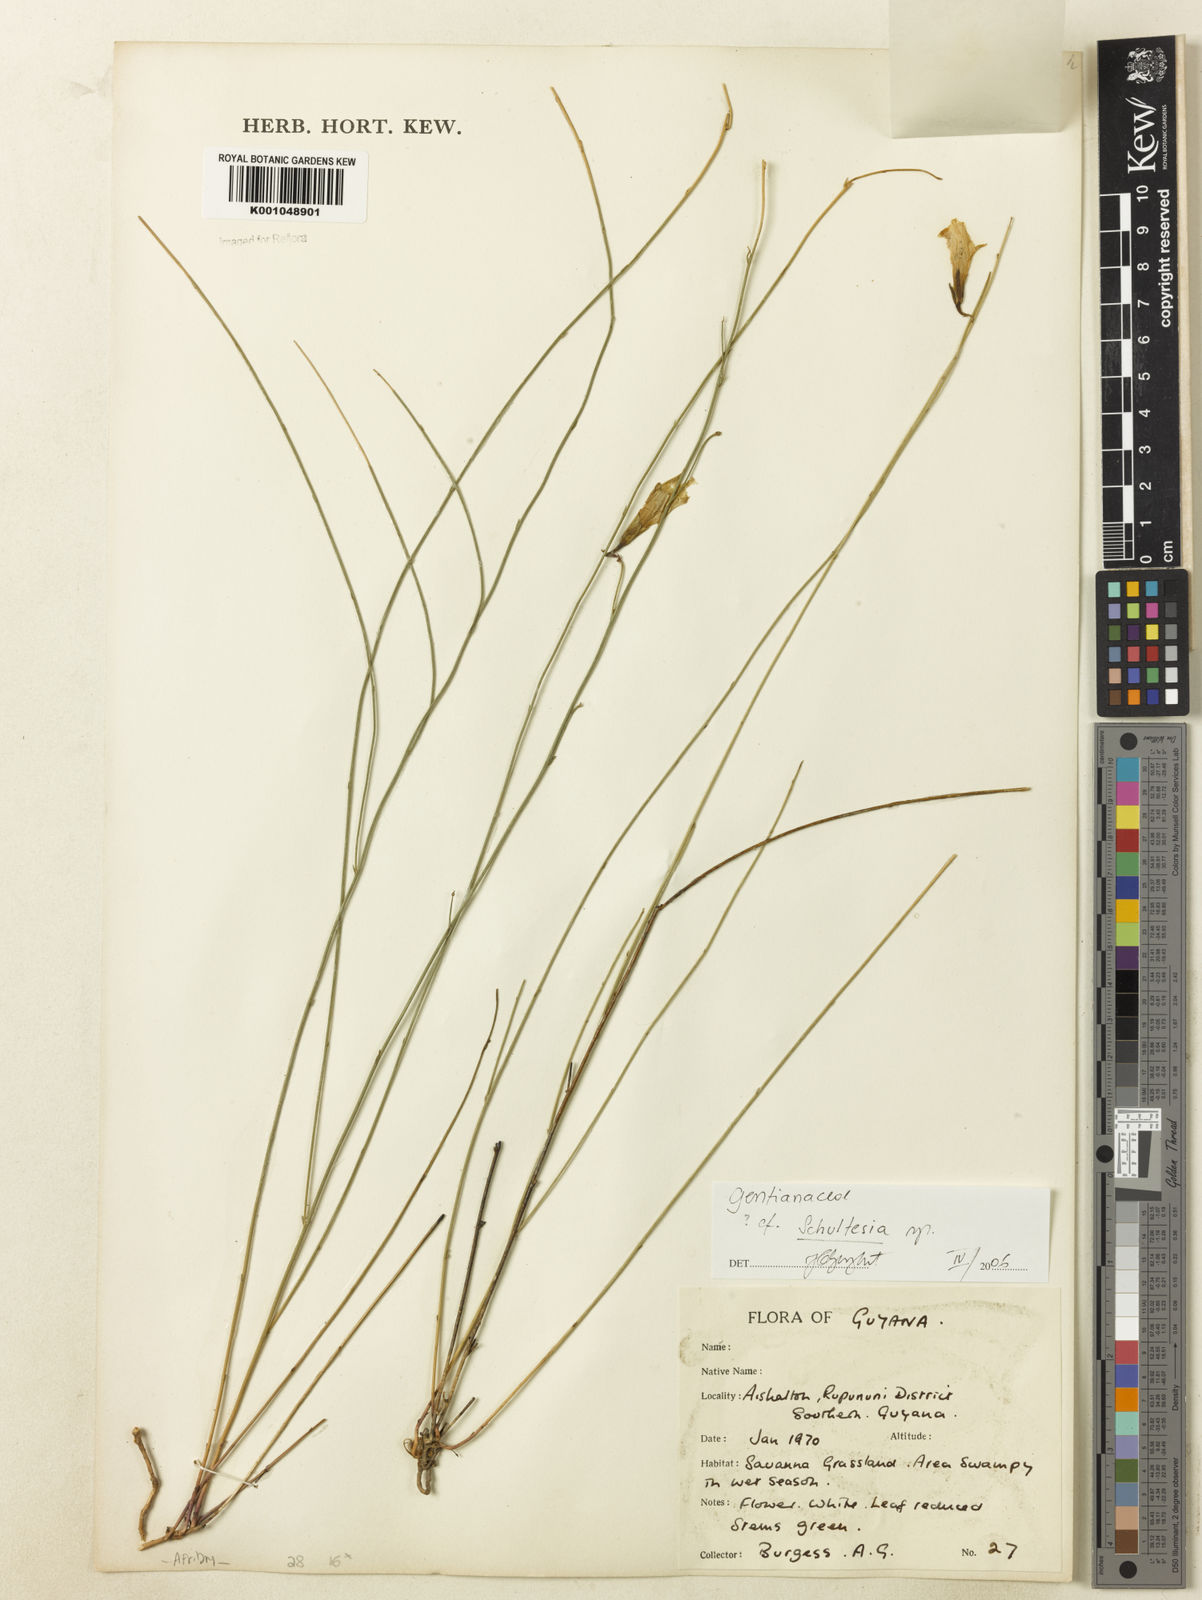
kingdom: Plantae
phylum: Tracheophyta
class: Magnoliopsida
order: Gentianales
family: Gentianaceae
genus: Schultesia
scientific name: Schultesia
